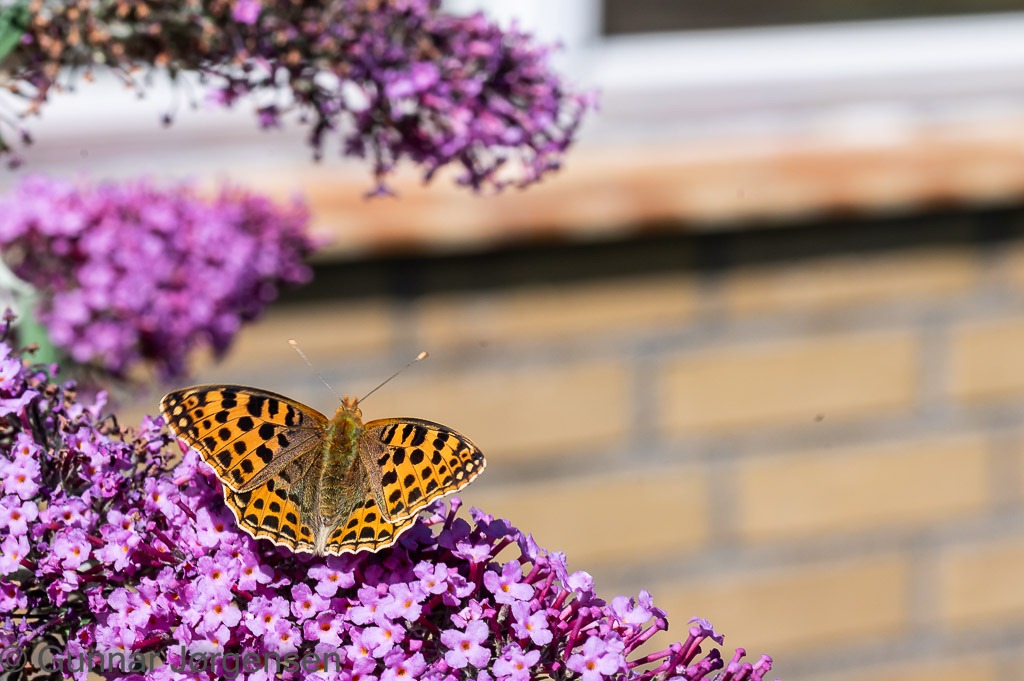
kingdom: Animalia
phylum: Arthropoda
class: Insecta
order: Lepidoptera
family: Nymphalidae
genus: Issoria
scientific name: Issoria lathonia
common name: Storplettet perlemorsommerfugl
